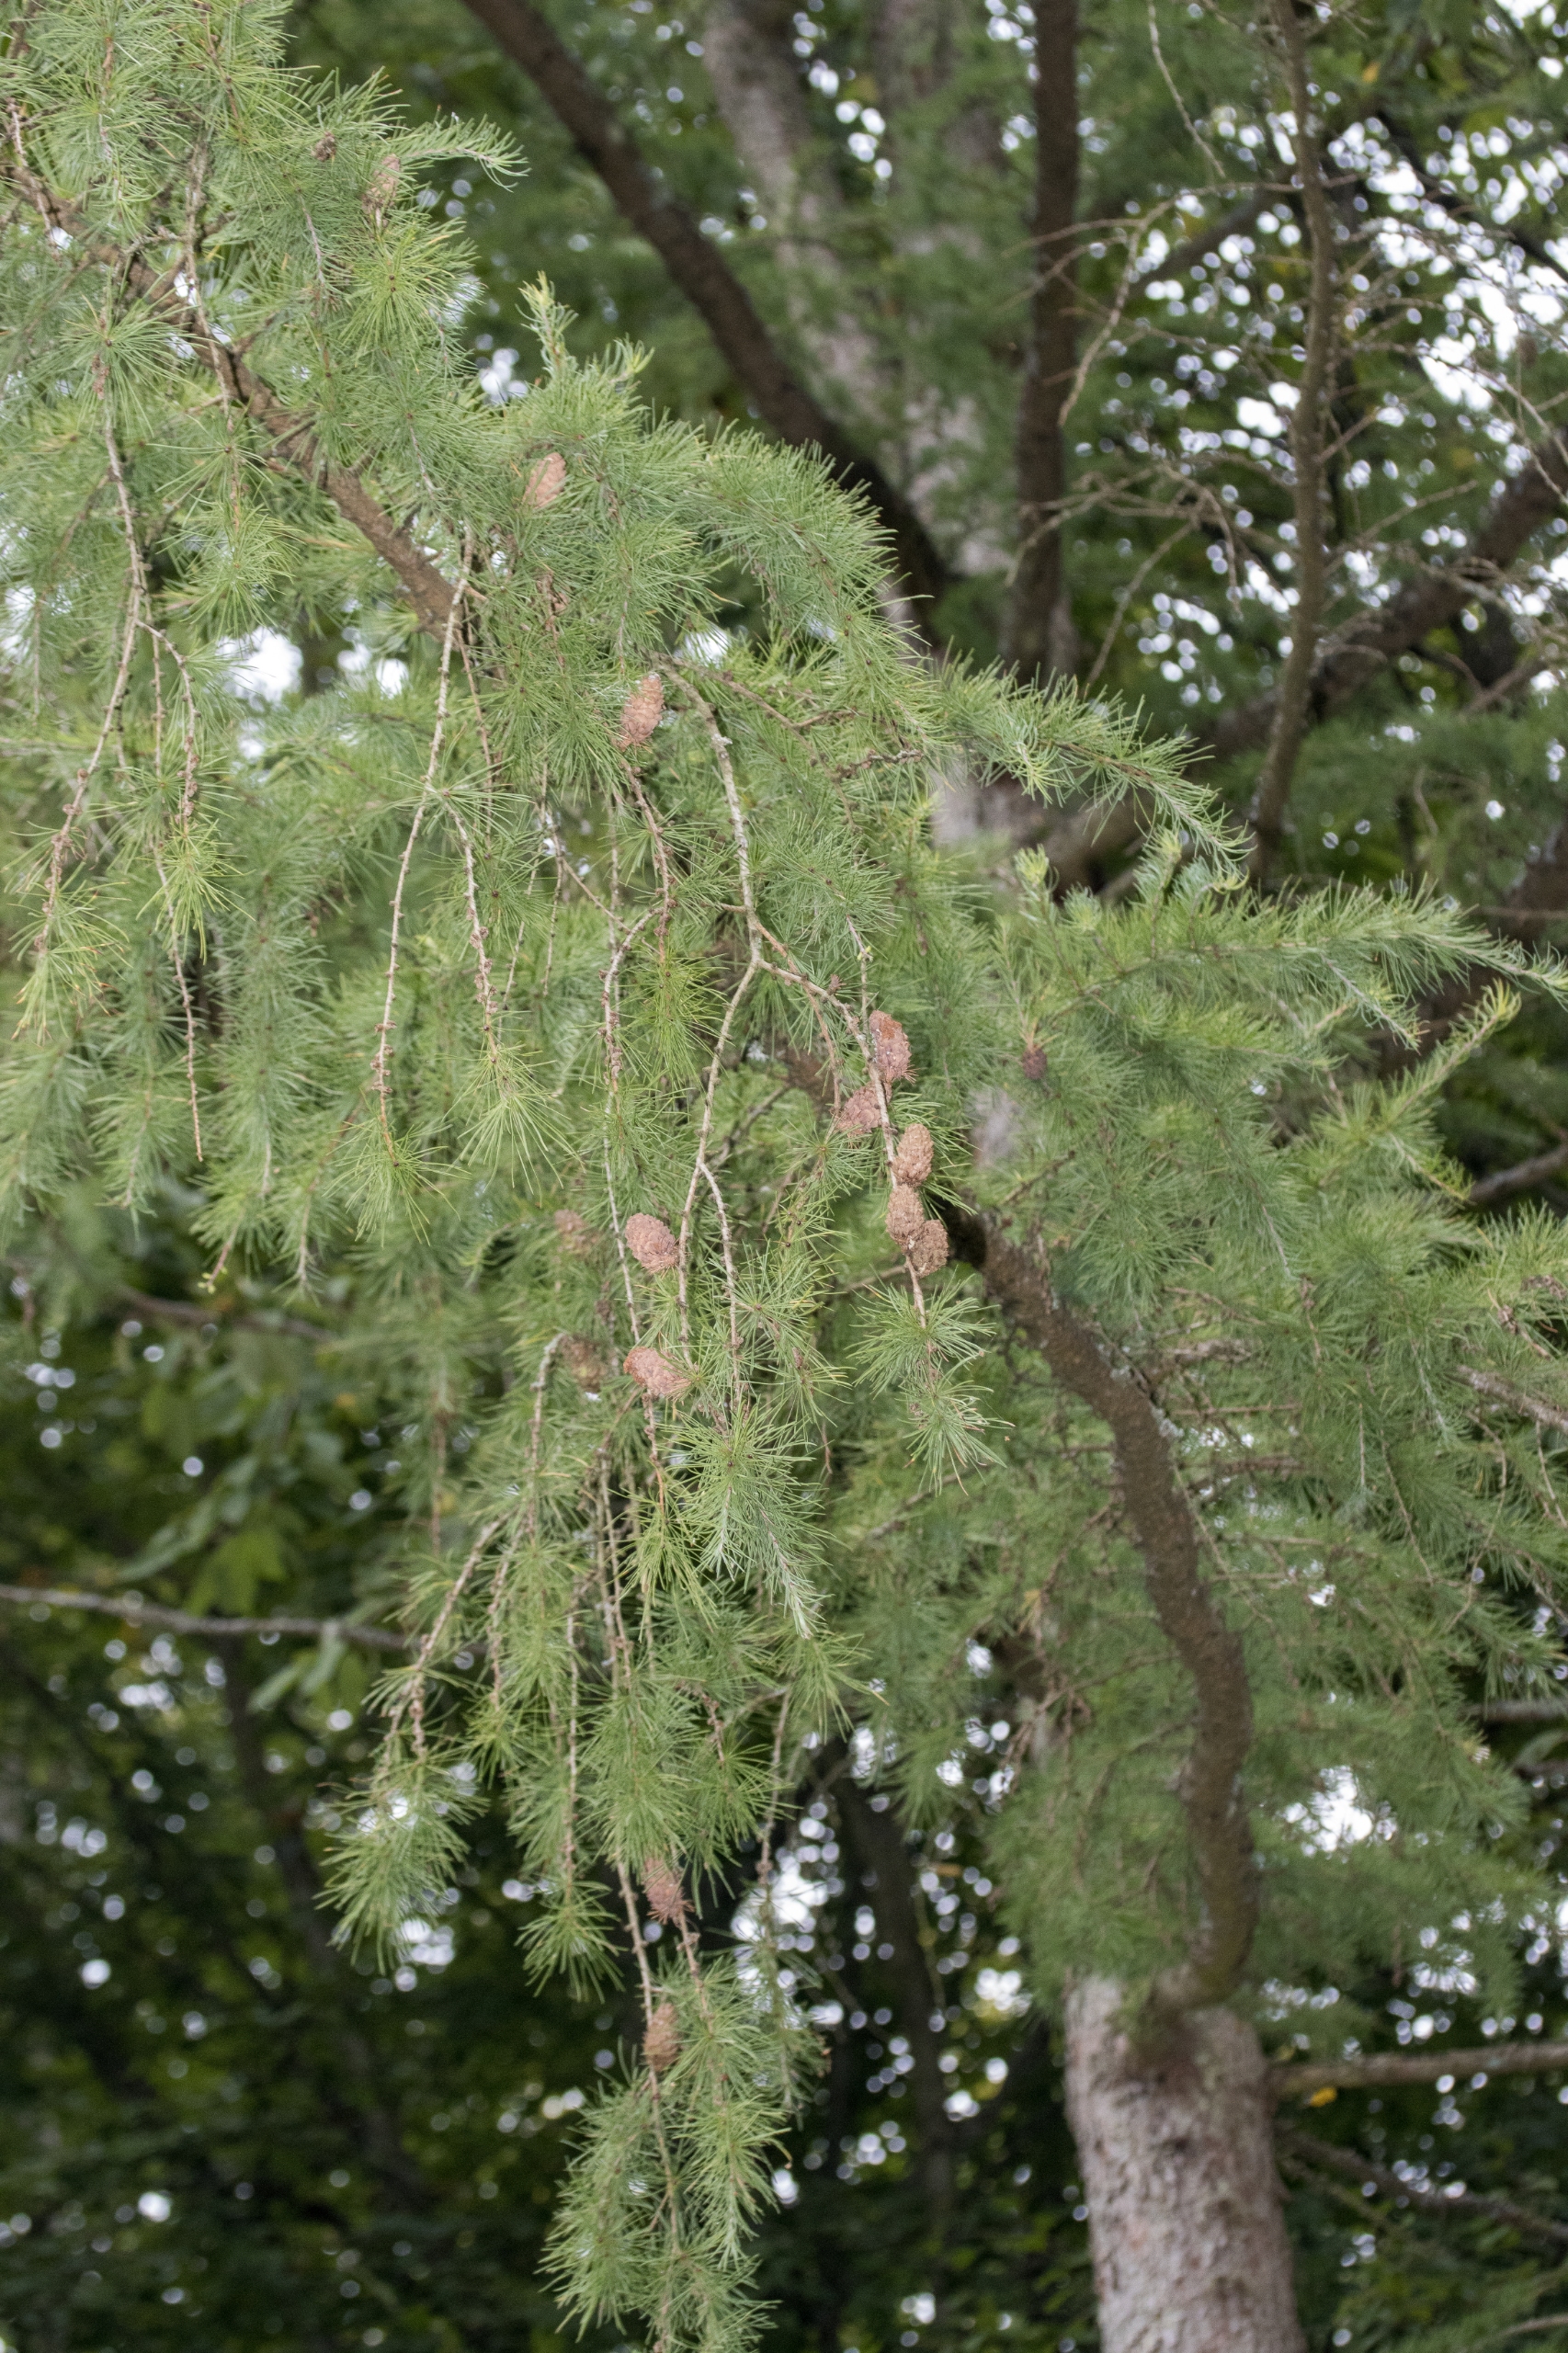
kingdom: Plantae
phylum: Tracheophyta
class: Pinopsida
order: Pinales
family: Pinaceae
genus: Larix
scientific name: Larix decidua
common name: Europæisk lærk
